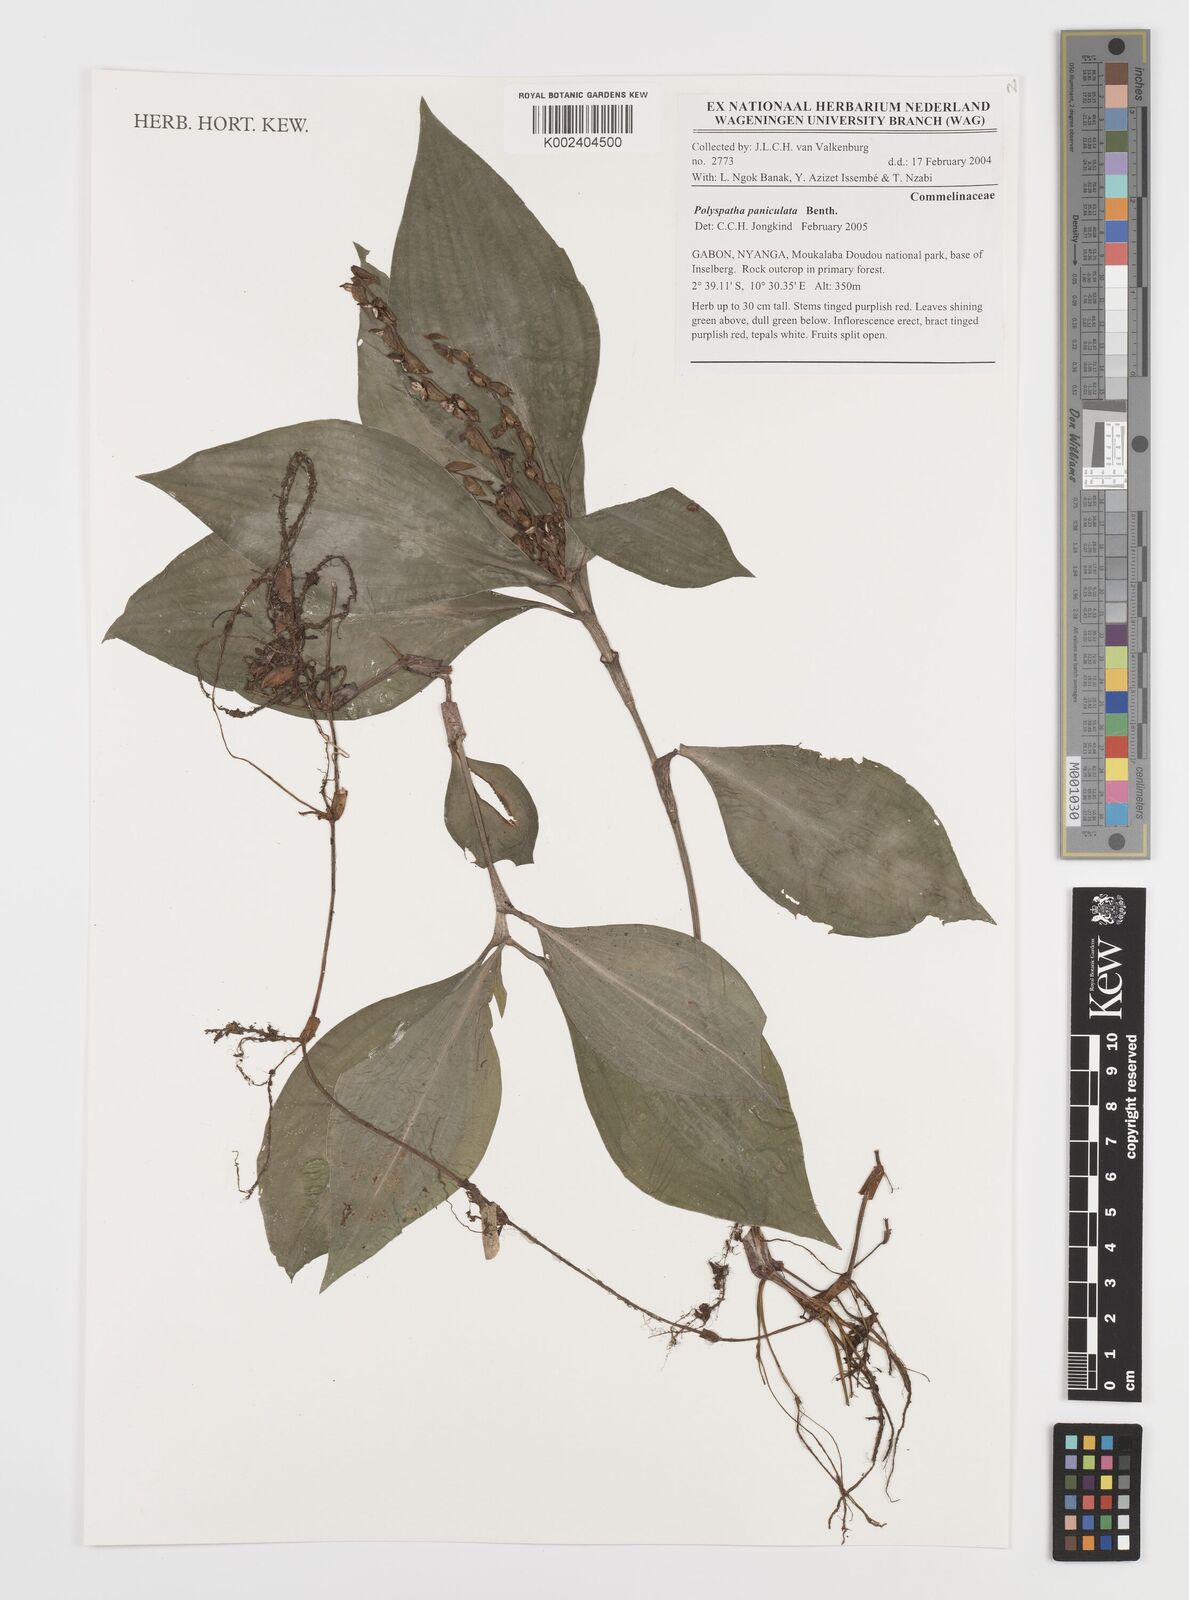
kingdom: Plantae
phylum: Tracheophyta
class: Liliopsida
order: Commelinales
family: Commelinaceae
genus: Polyspatha
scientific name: Polyspatha paniculata
